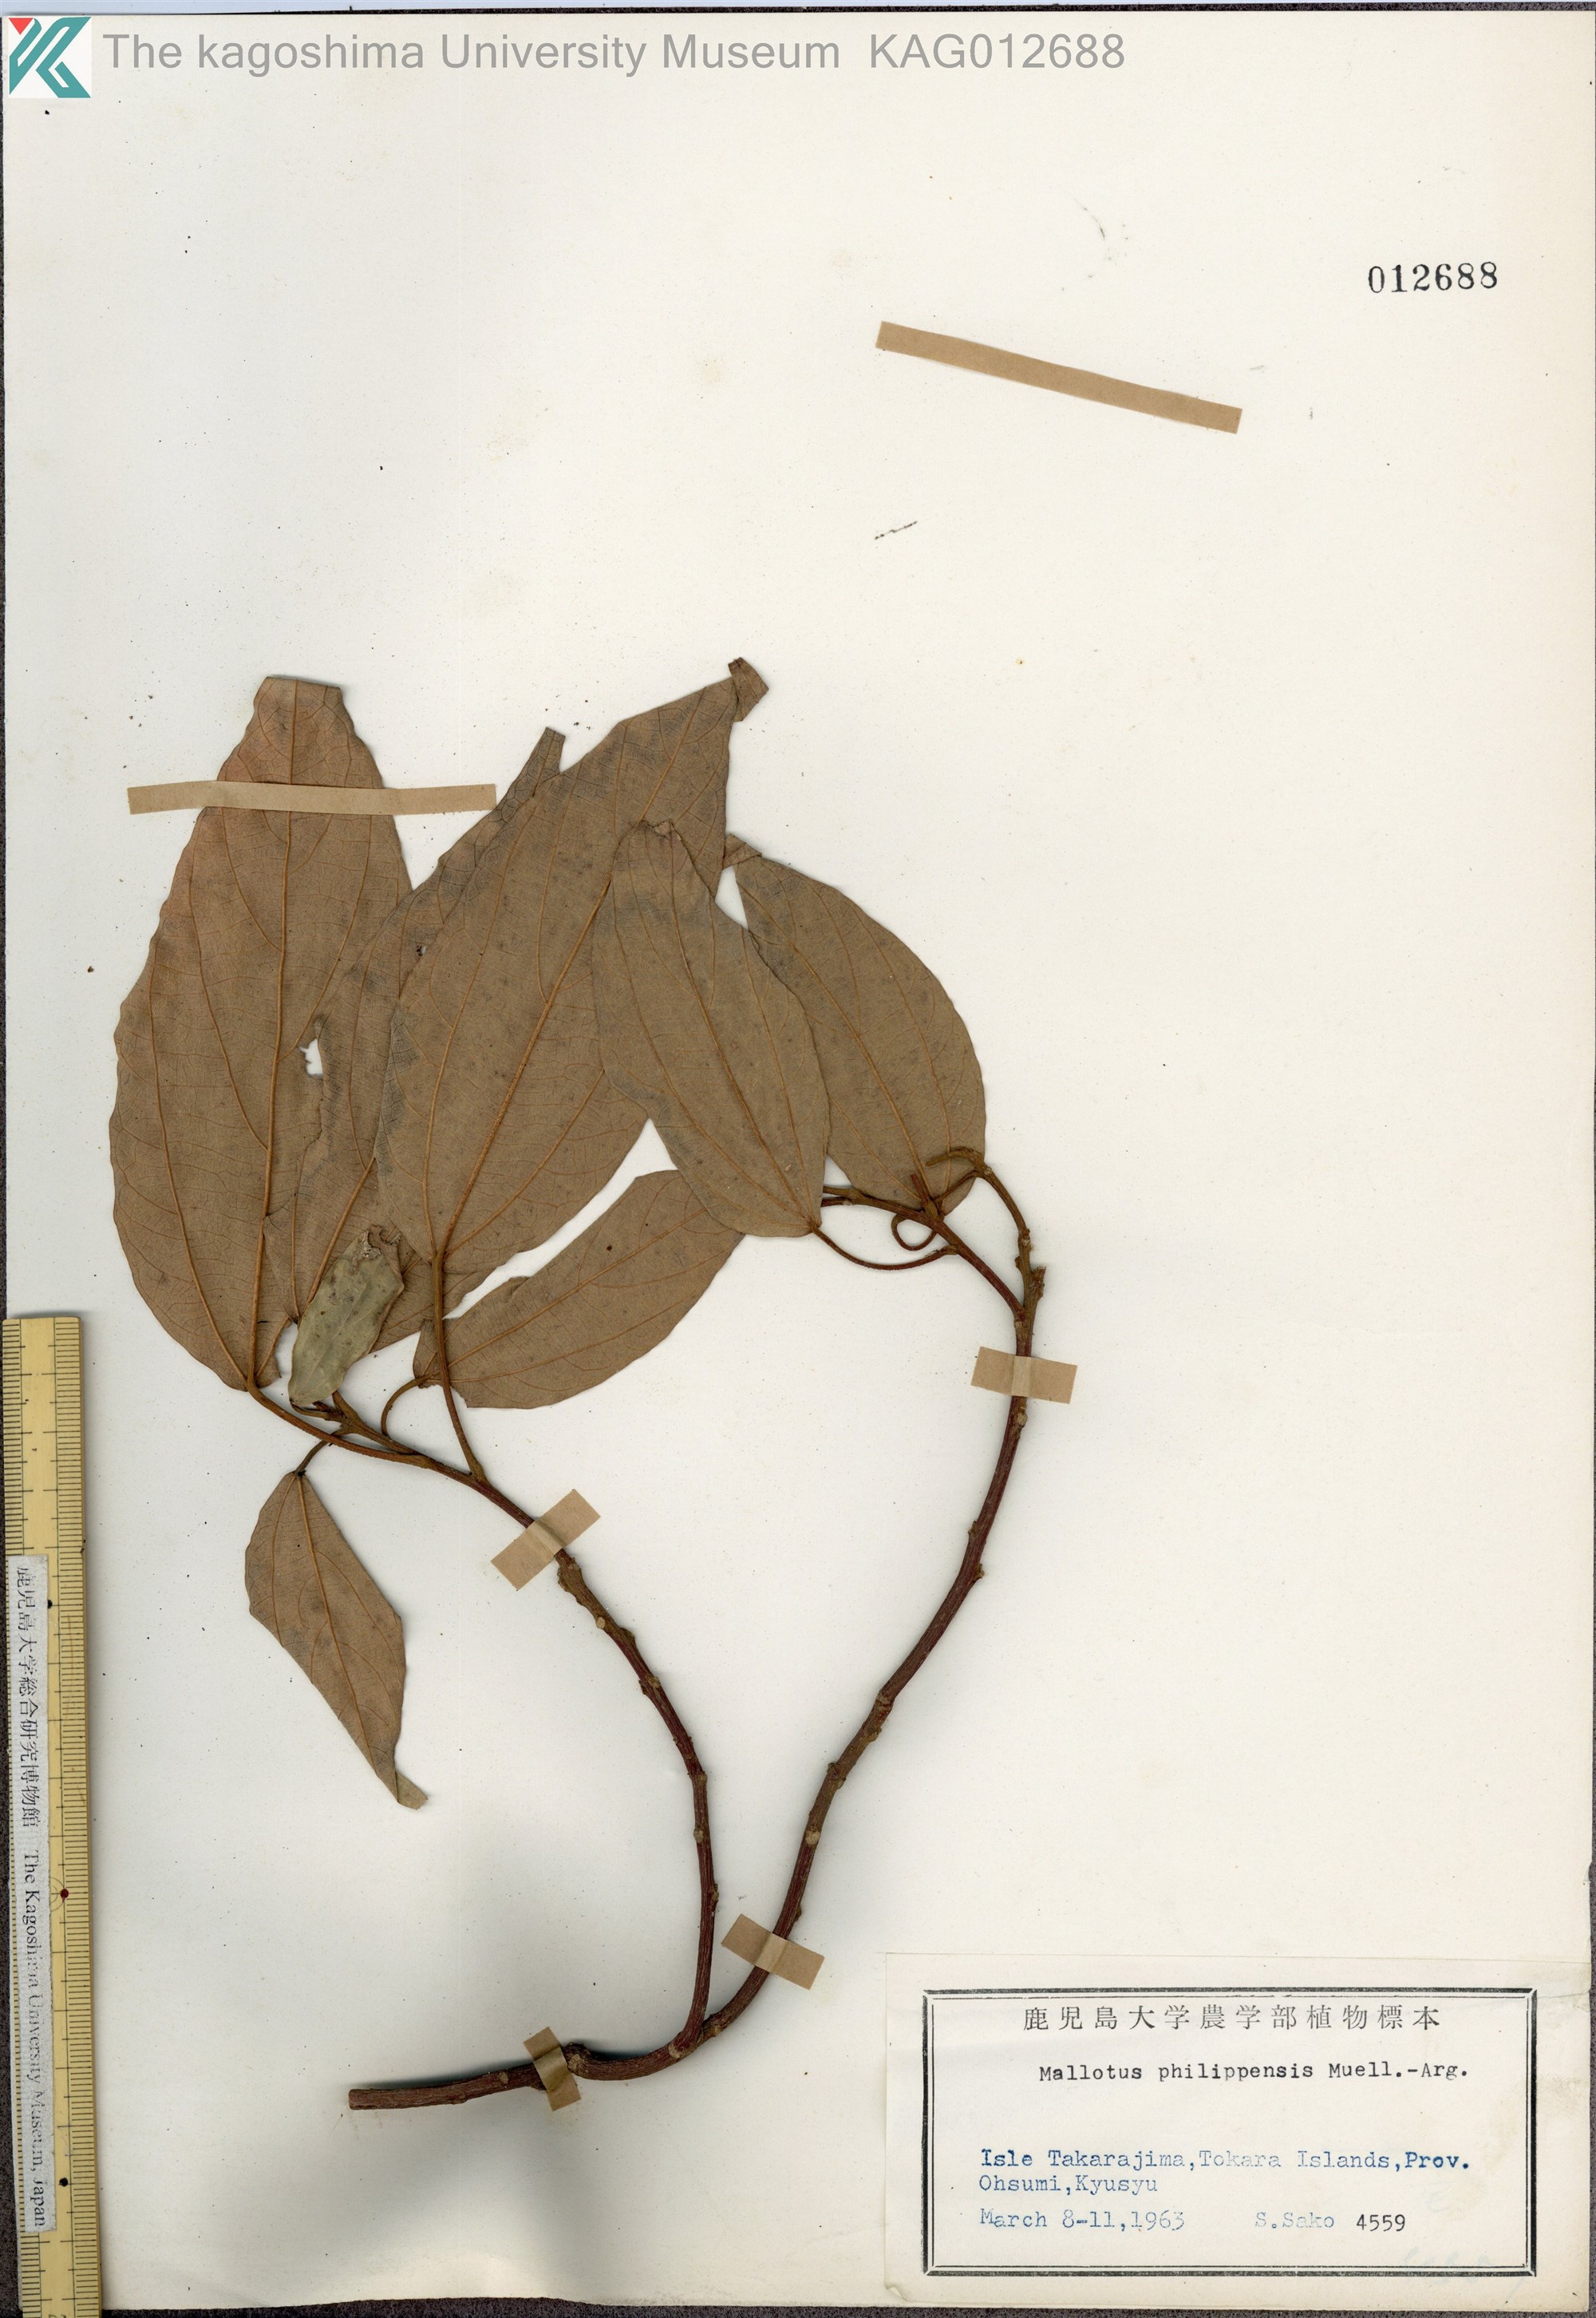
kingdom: Plantae
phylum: Tracheophyta
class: Magnoliopsida
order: Malpighiales
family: Euphorbiaceae
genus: Mallotus
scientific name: Mallotus philippensis
